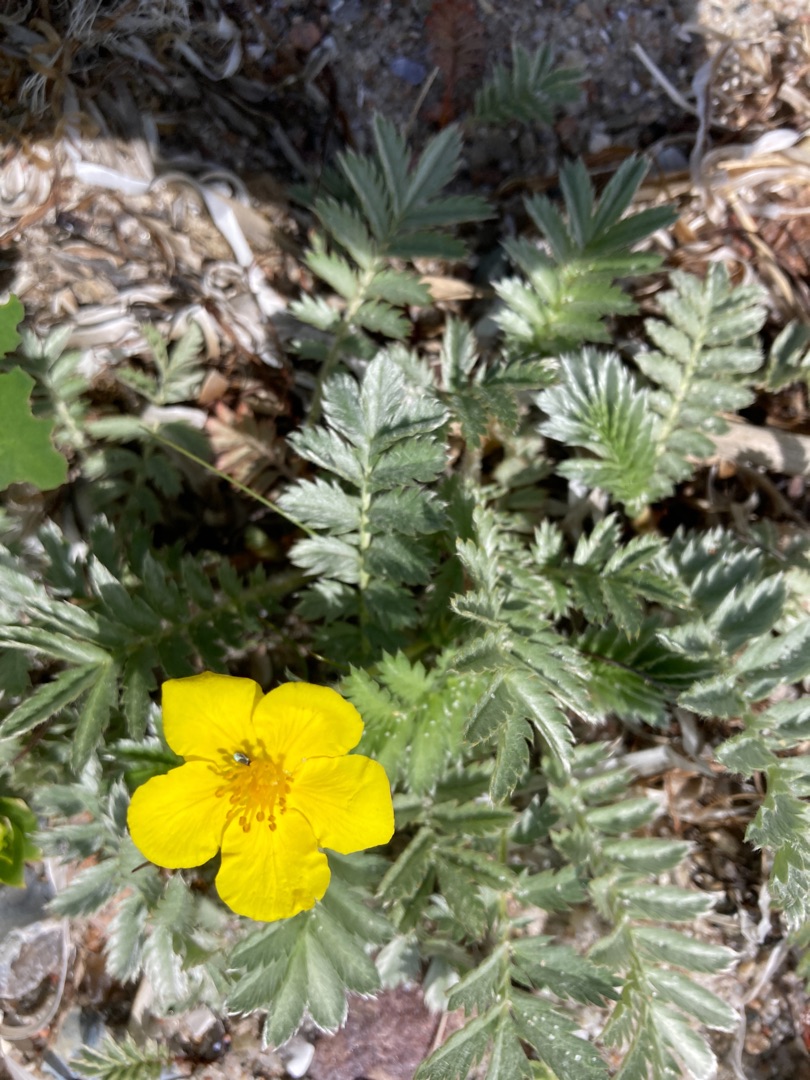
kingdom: Plantae
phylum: Tracheophyta
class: Magnoliopsida
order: Rosales
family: Rosaceae
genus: Argentina
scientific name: Argentina anserina
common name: Gåsepotentil
